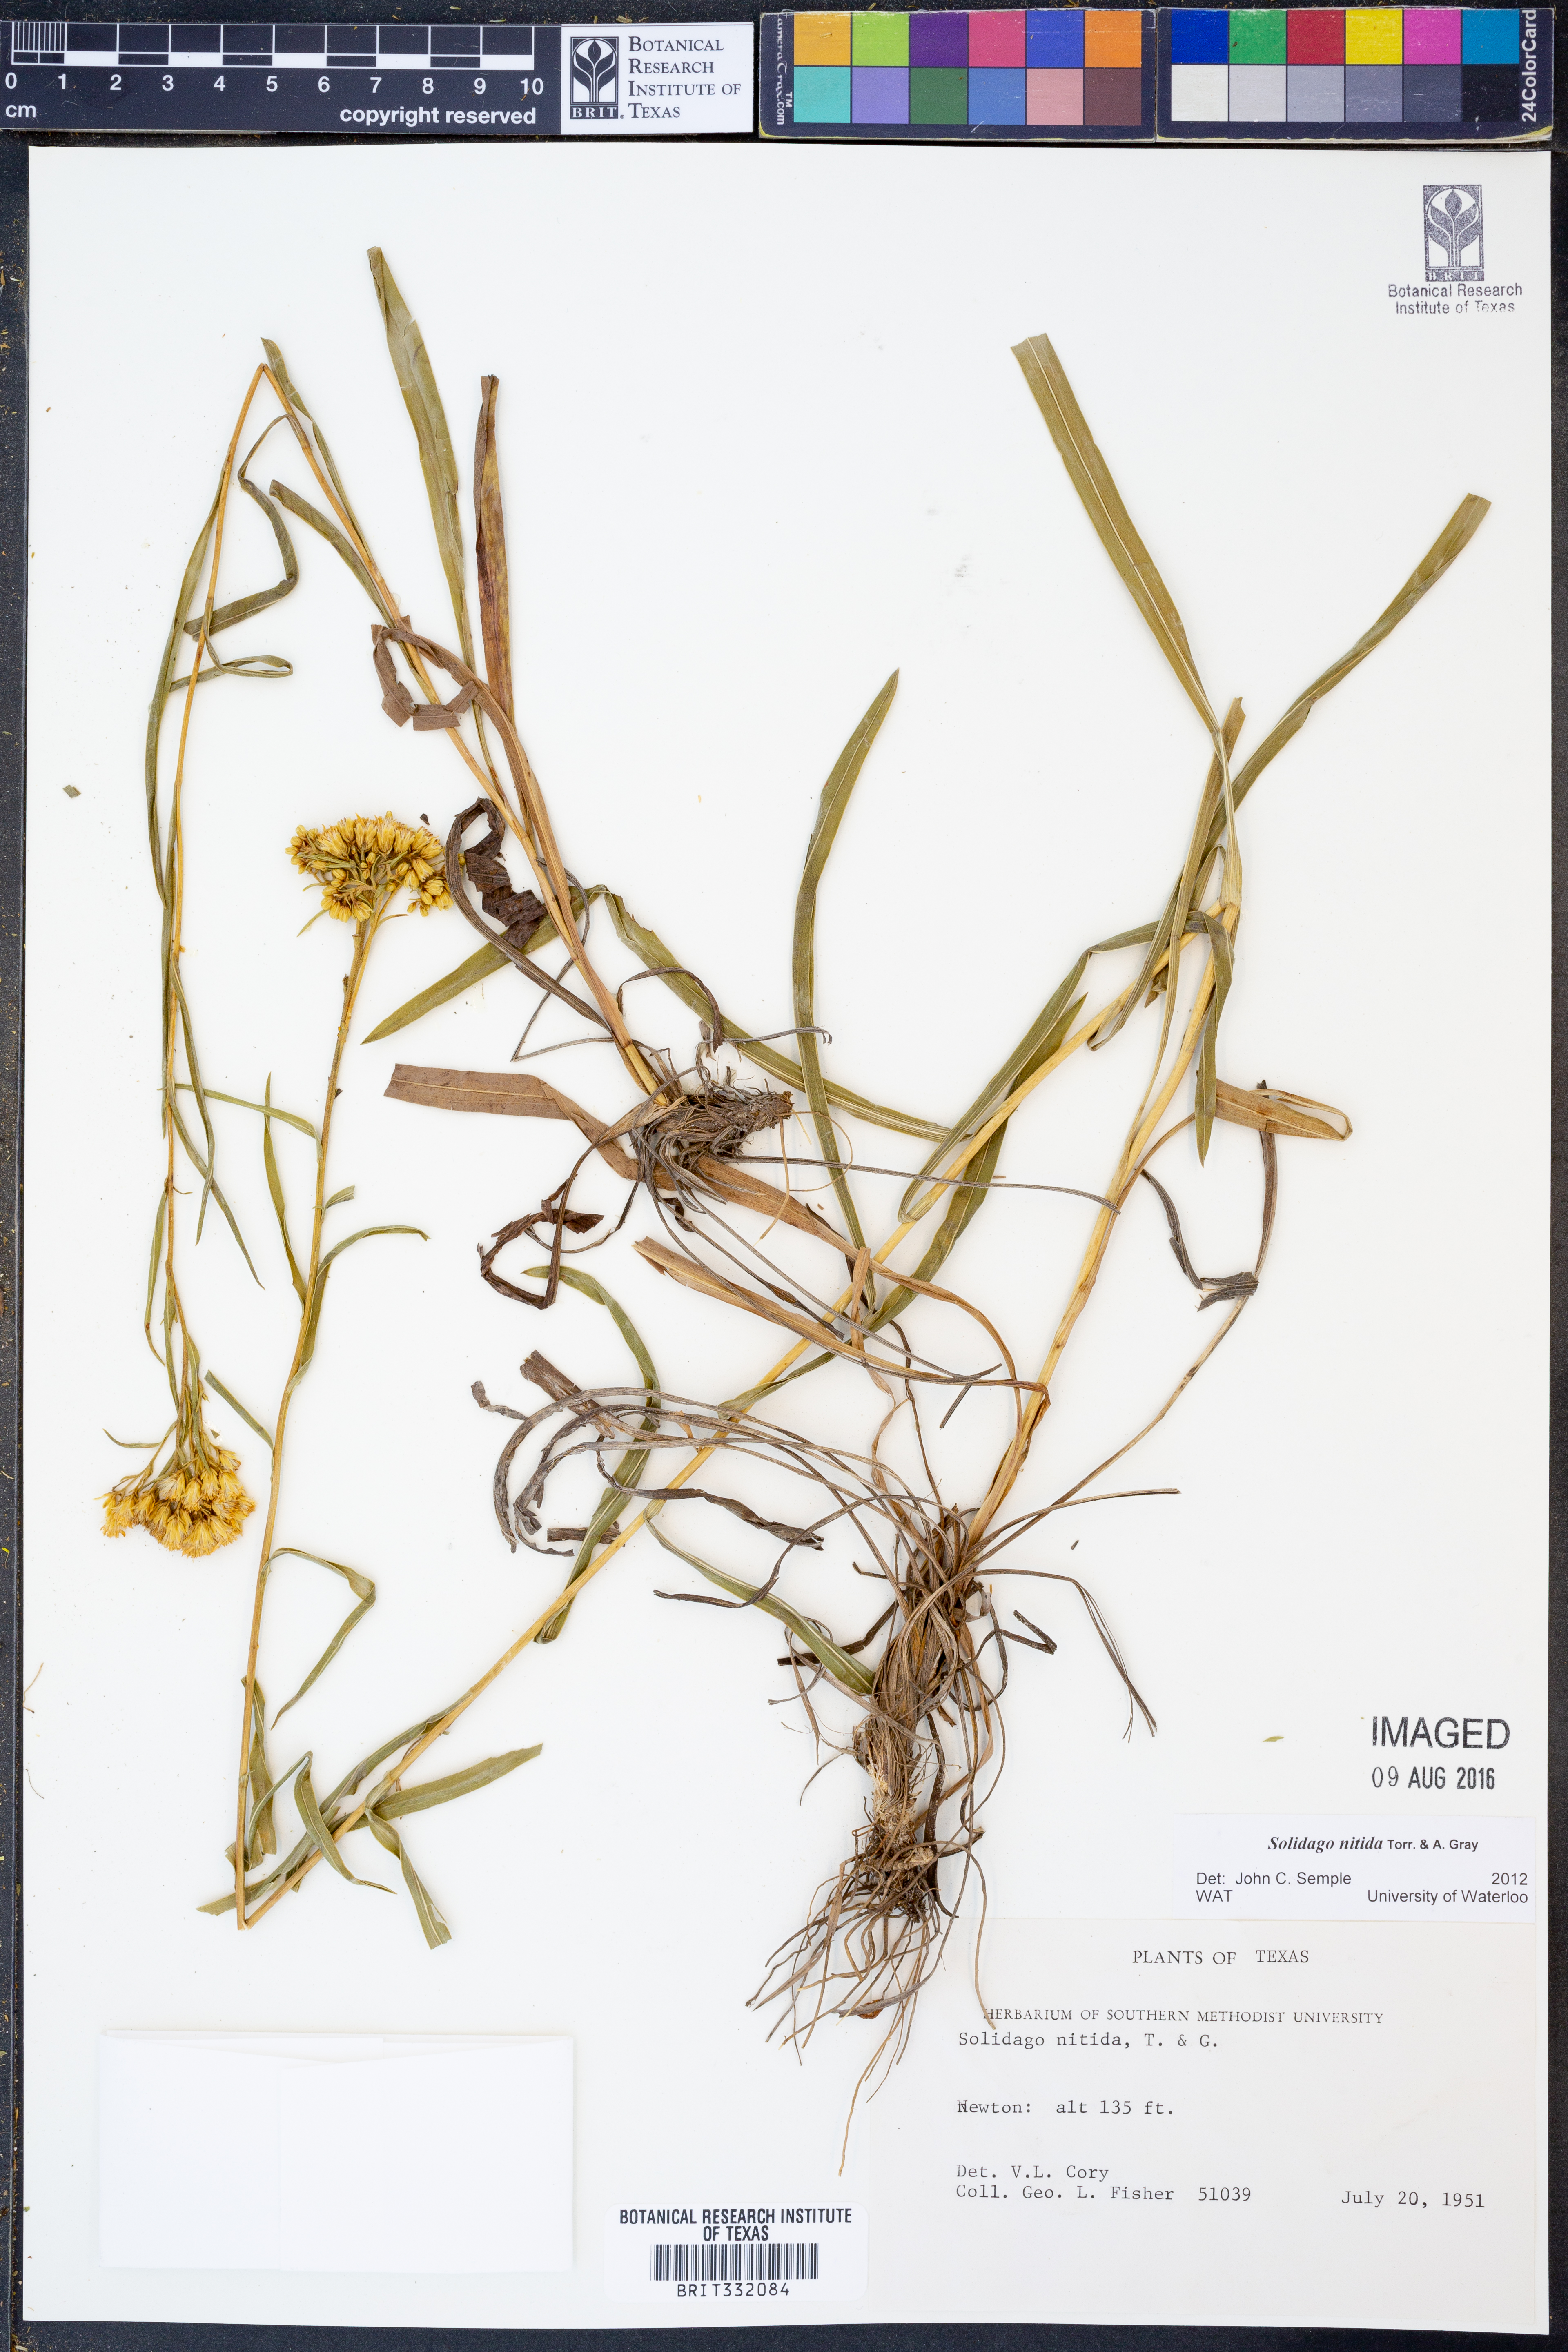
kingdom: Plantae
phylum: Tracheophyta
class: Magnoliopsida
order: Asterales
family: Asteraceae
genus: Solidago
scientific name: Solidago nitida
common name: Shiny goldenrod
